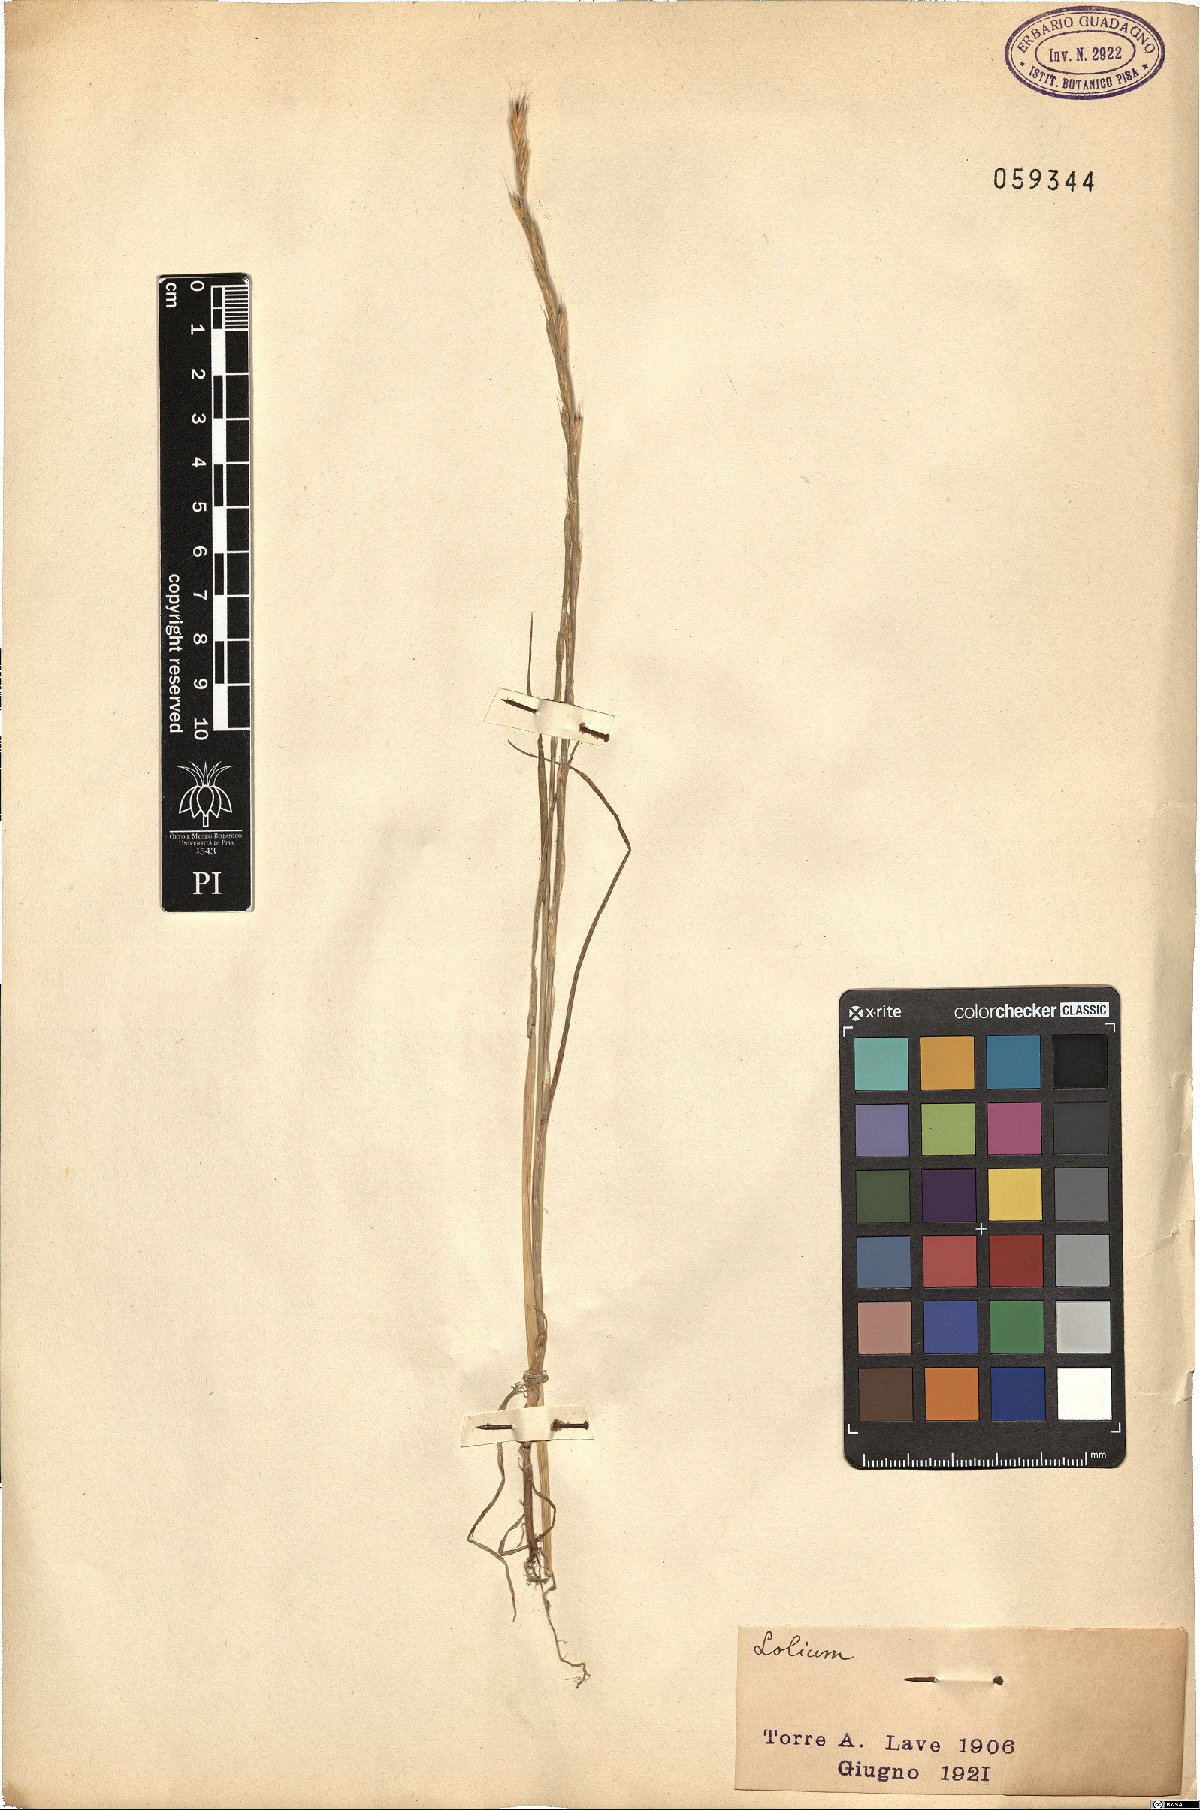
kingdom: Plantae
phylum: Tracheophyta
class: Liliopsida
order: Poales
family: Poaceae
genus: Lolium
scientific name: Lolium
